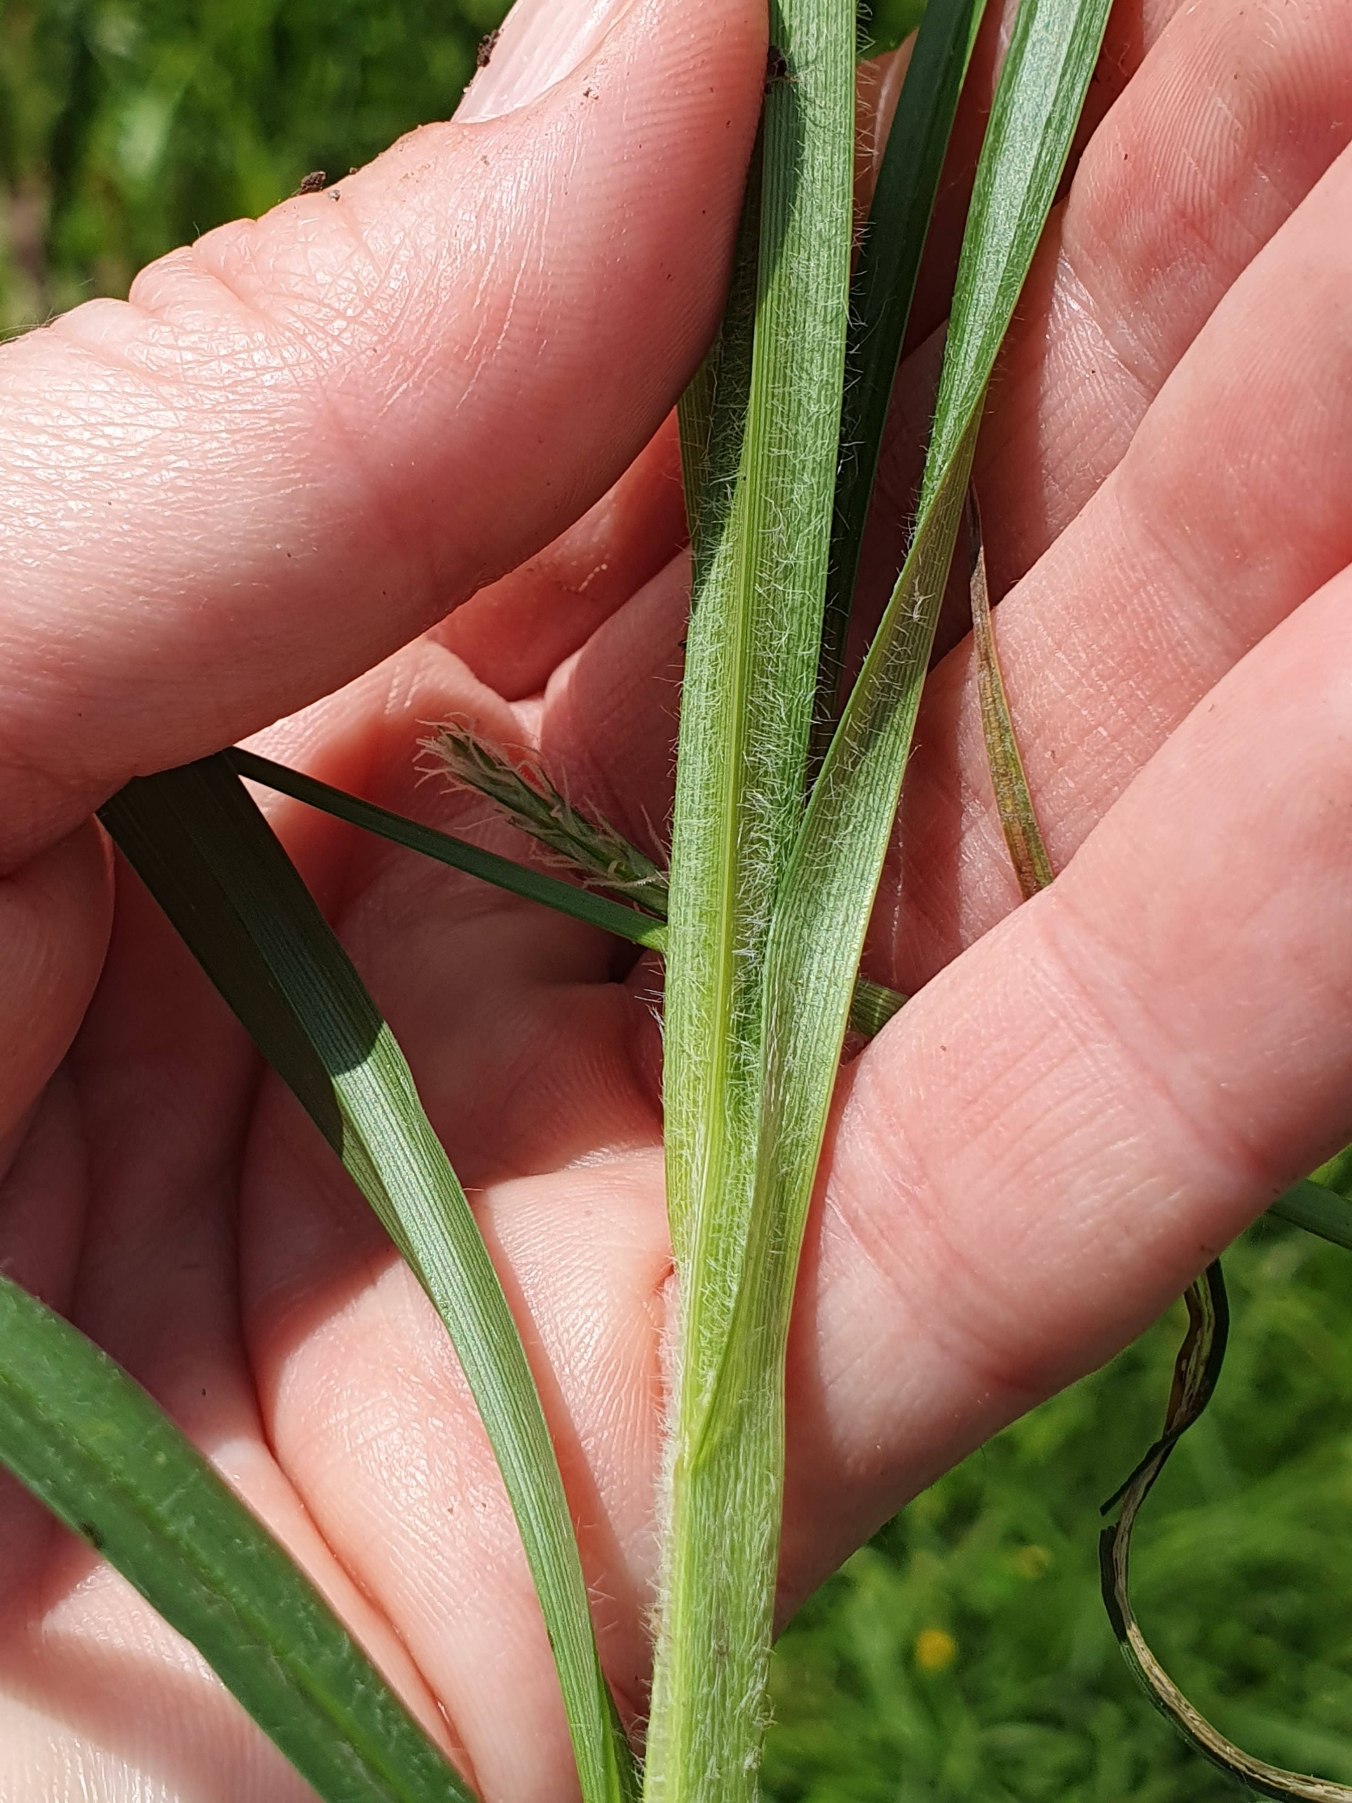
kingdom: Plantae
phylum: Tracheophyta
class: Liliopsida
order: Poales
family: Cyperaceae
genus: Carex
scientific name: Carex hirta
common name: Håret star
